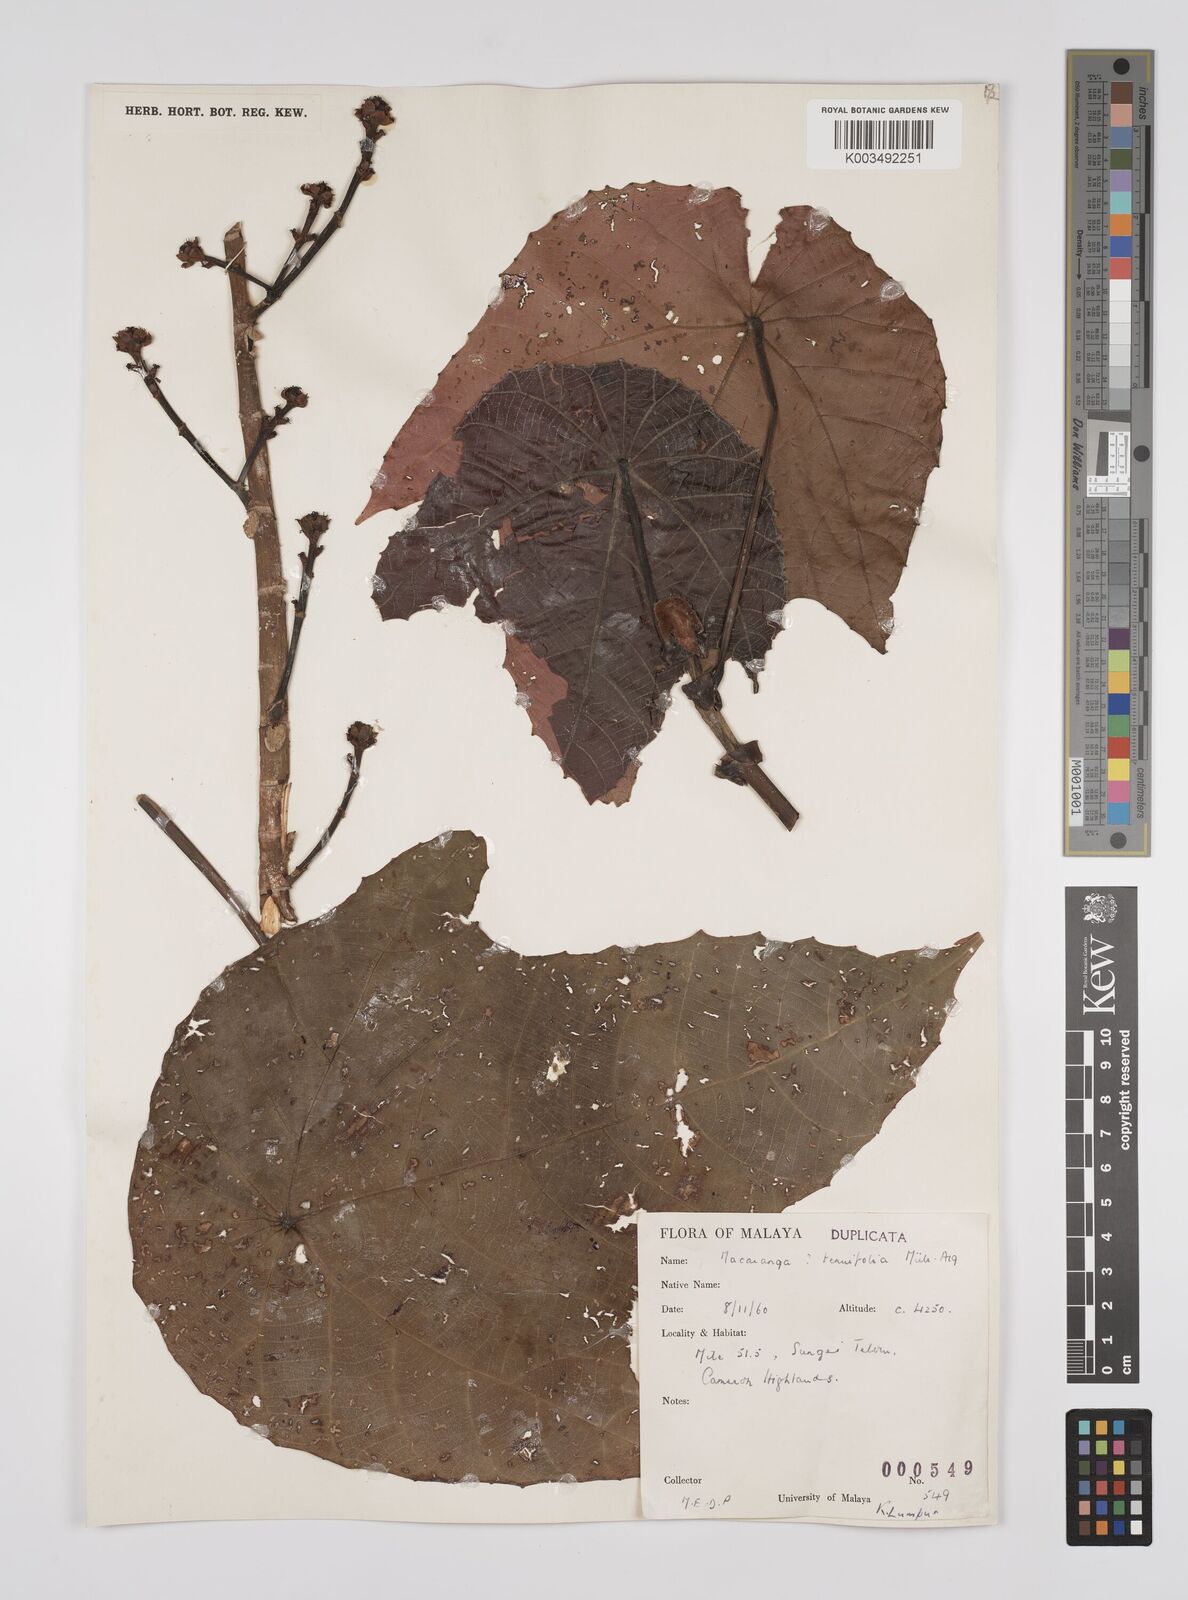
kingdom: Plantae
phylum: Tracheophyta
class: Magnoliopsida
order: Malpighiales
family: Euphorbiaceae
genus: Macaranga
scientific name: Macaranga triloba
